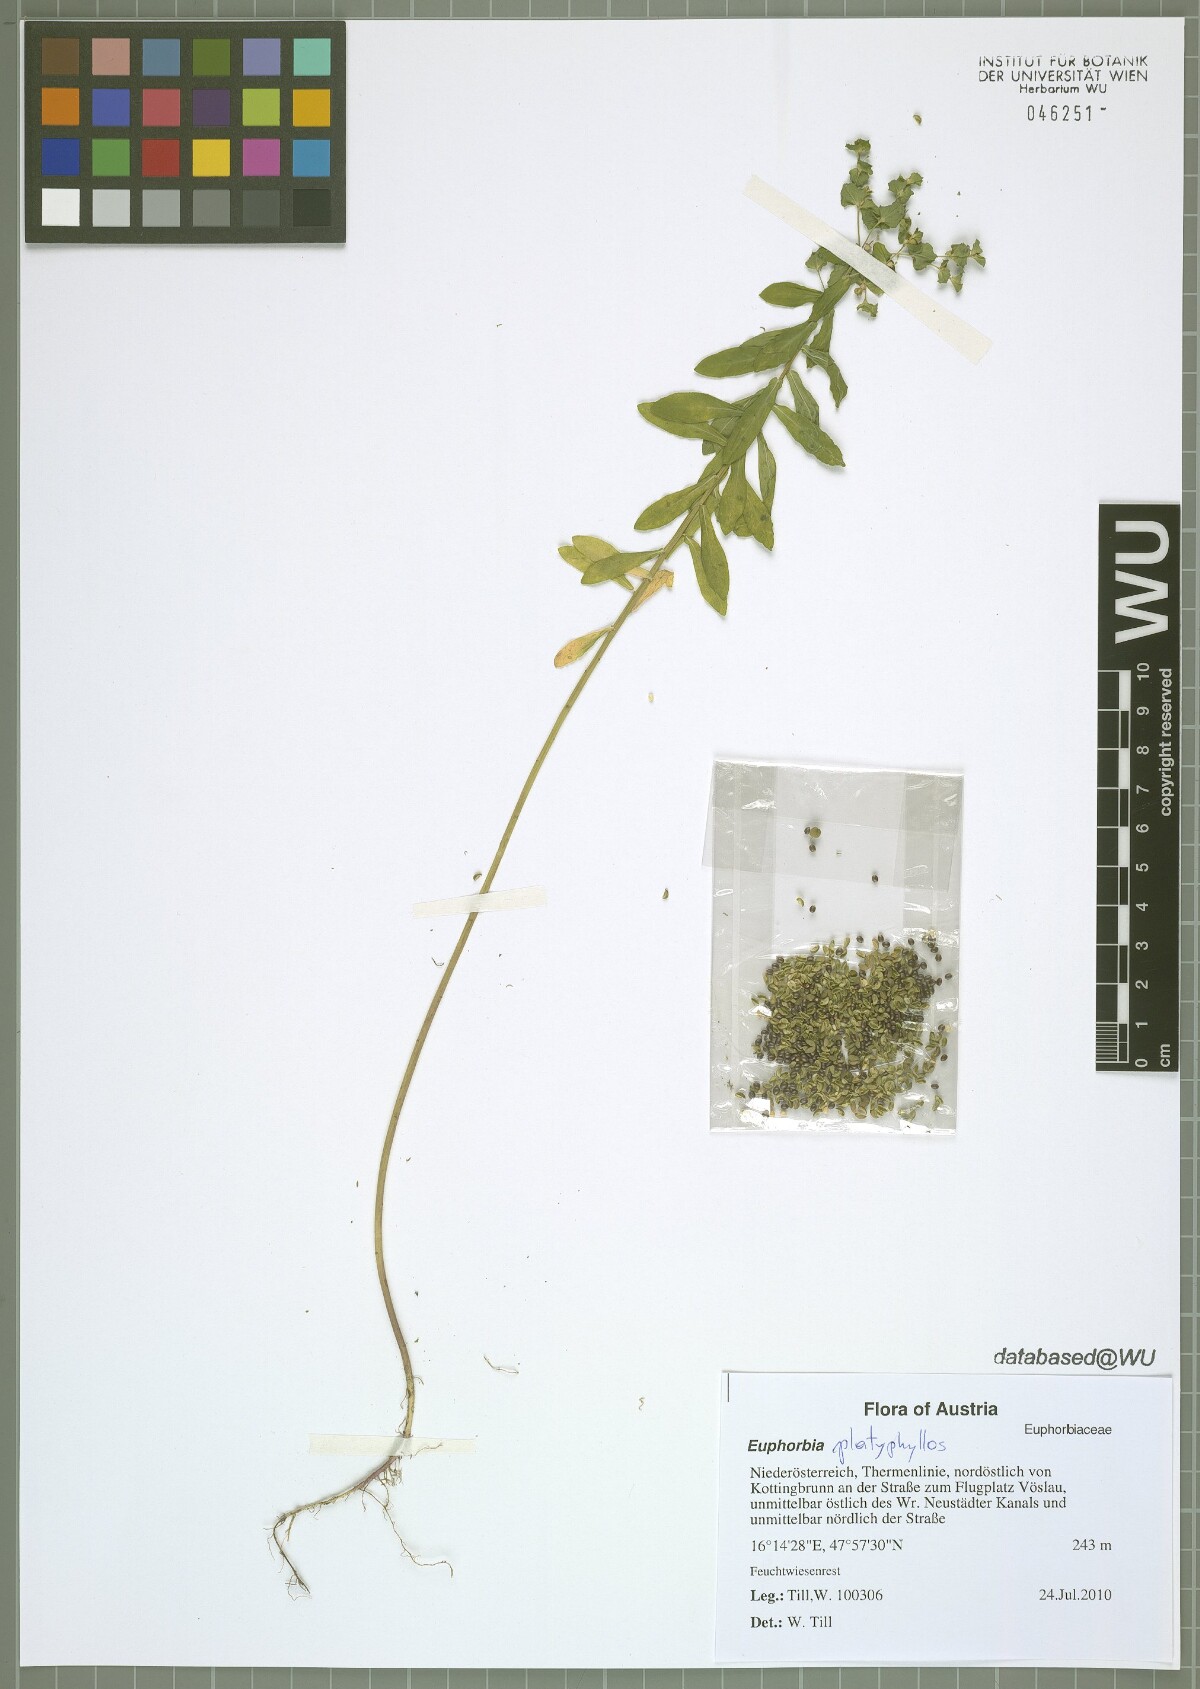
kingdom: Plantae
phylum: Tracheophyta
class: Magnoliopsida
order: Malpighiales
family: Euphorbiaceae
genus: Euphorbia
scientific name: Euphorbia platyphyllos
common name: Broad-leaved spurge
